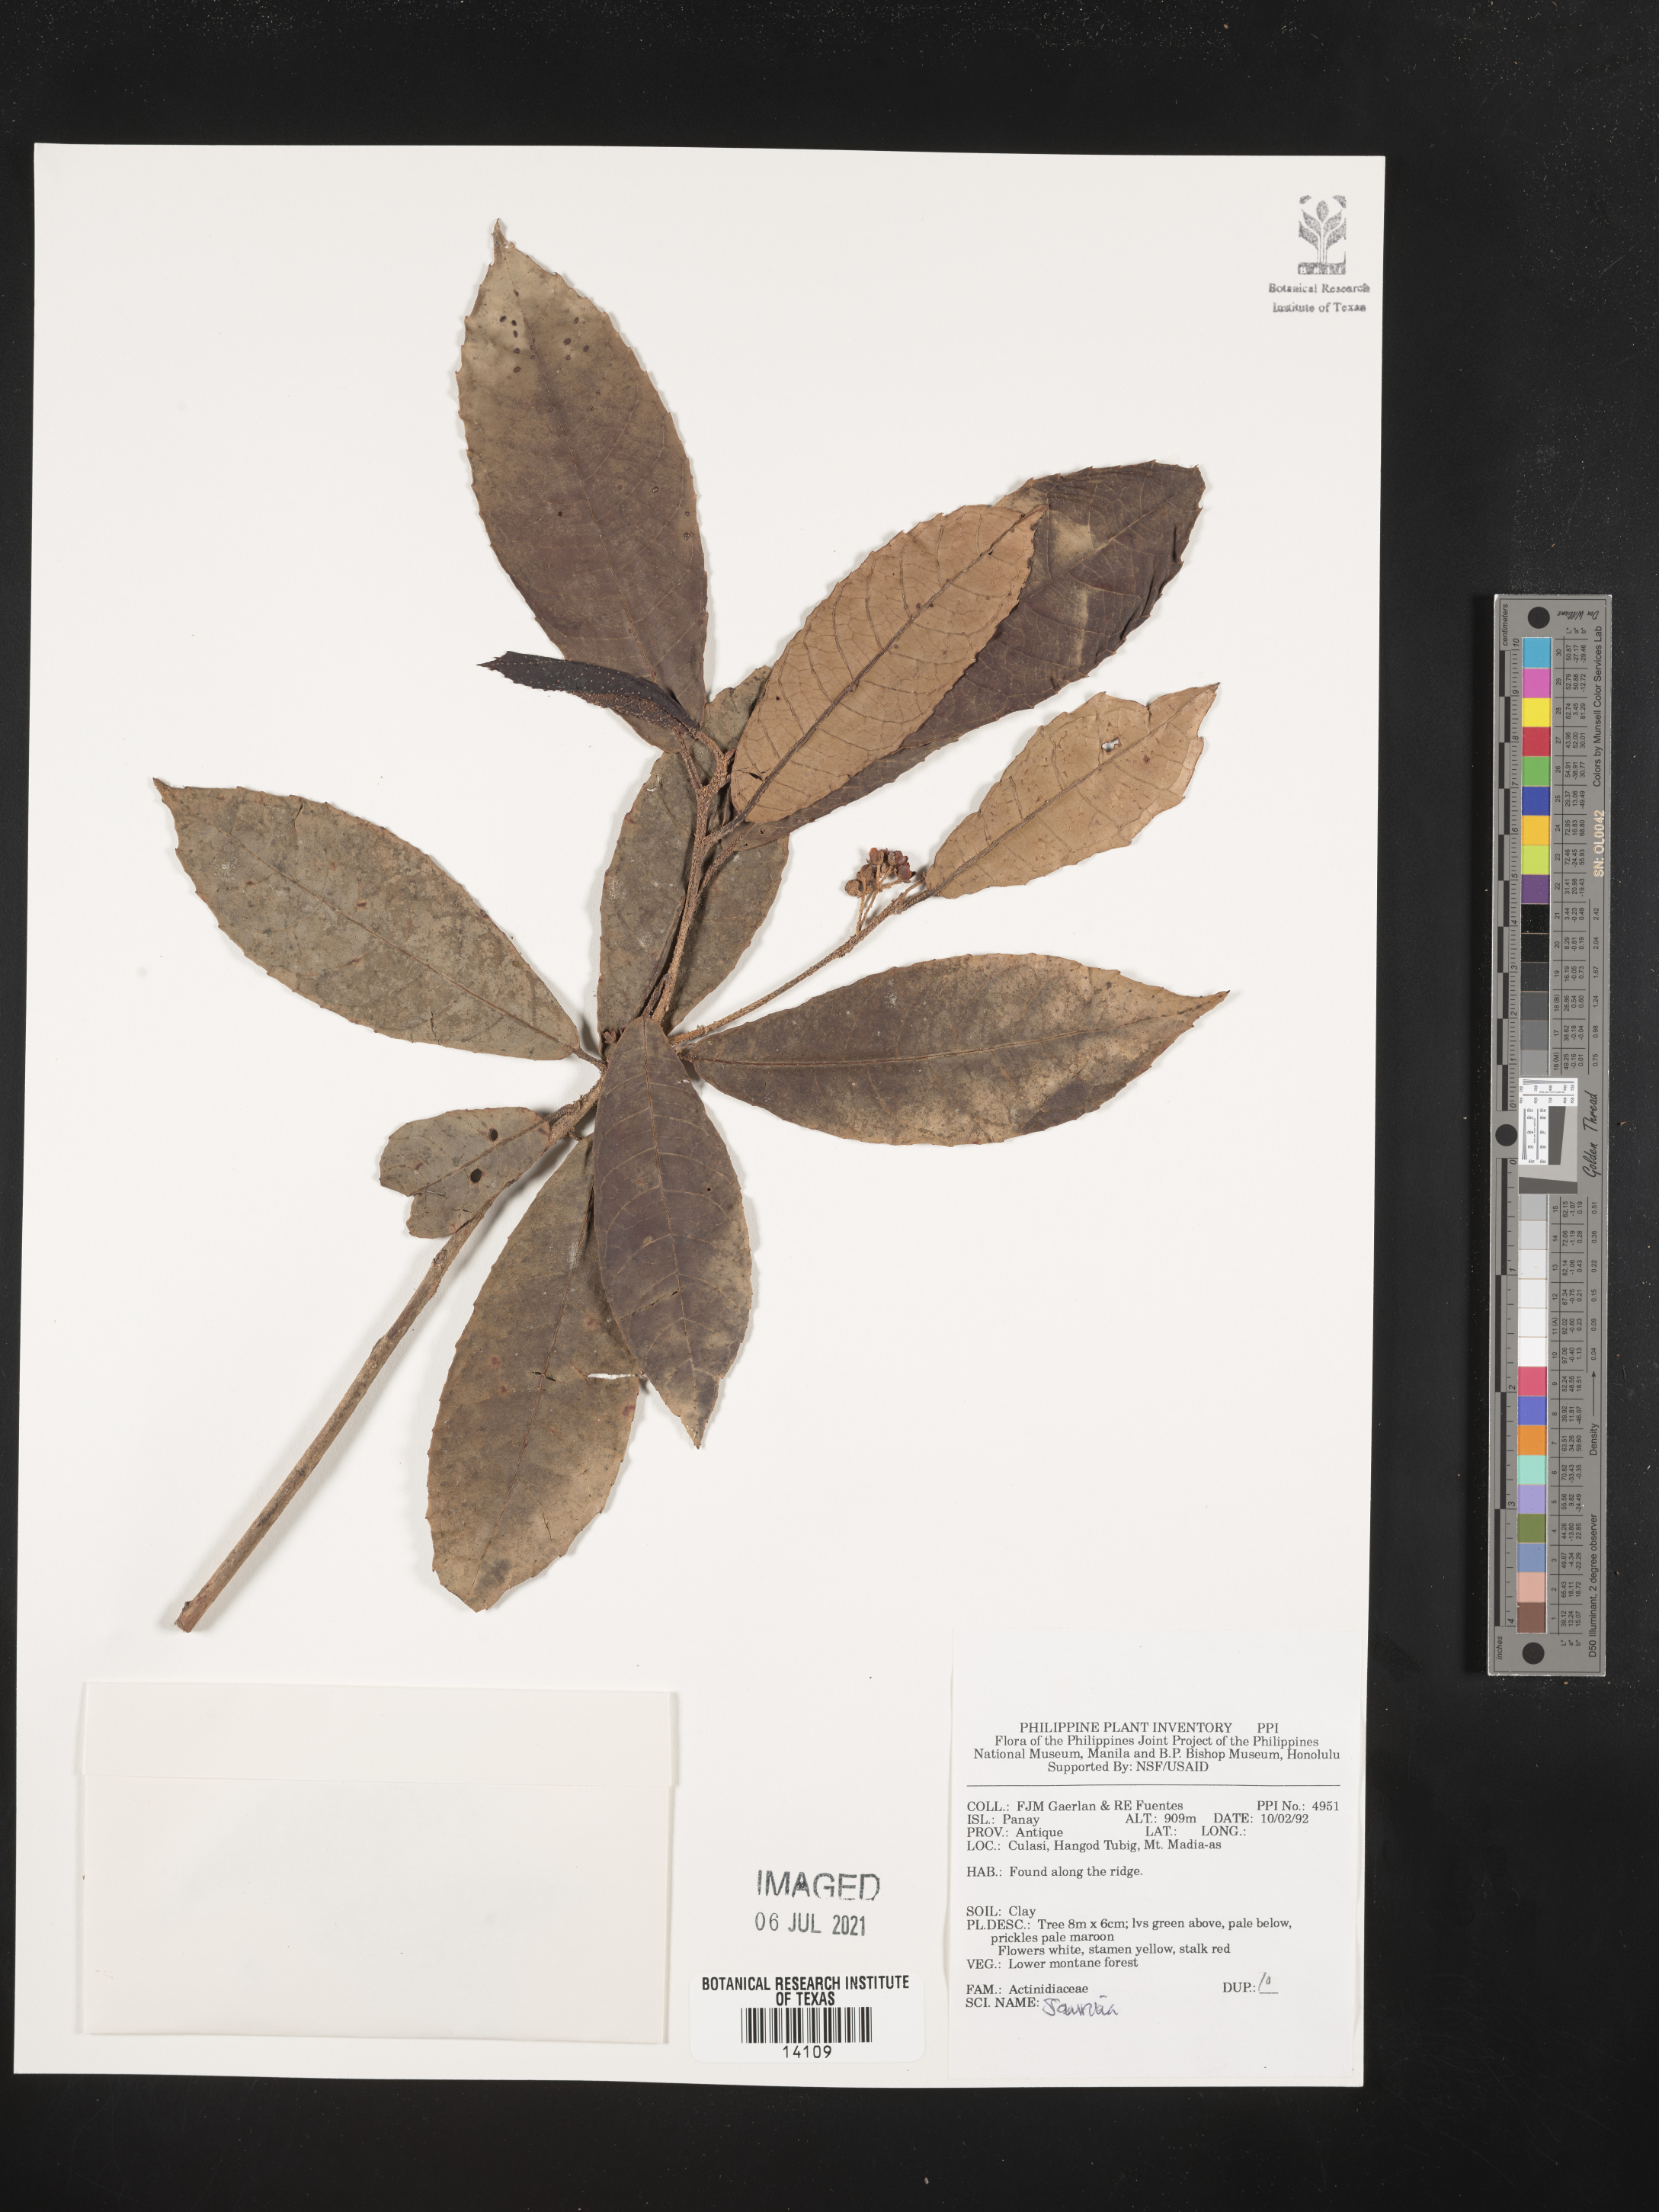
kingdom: Plantae
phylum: Tracheophyta
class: Magnoliopsida
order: Ericales
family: Actinidiaceae
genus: Saurauia
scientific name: Saurauia
